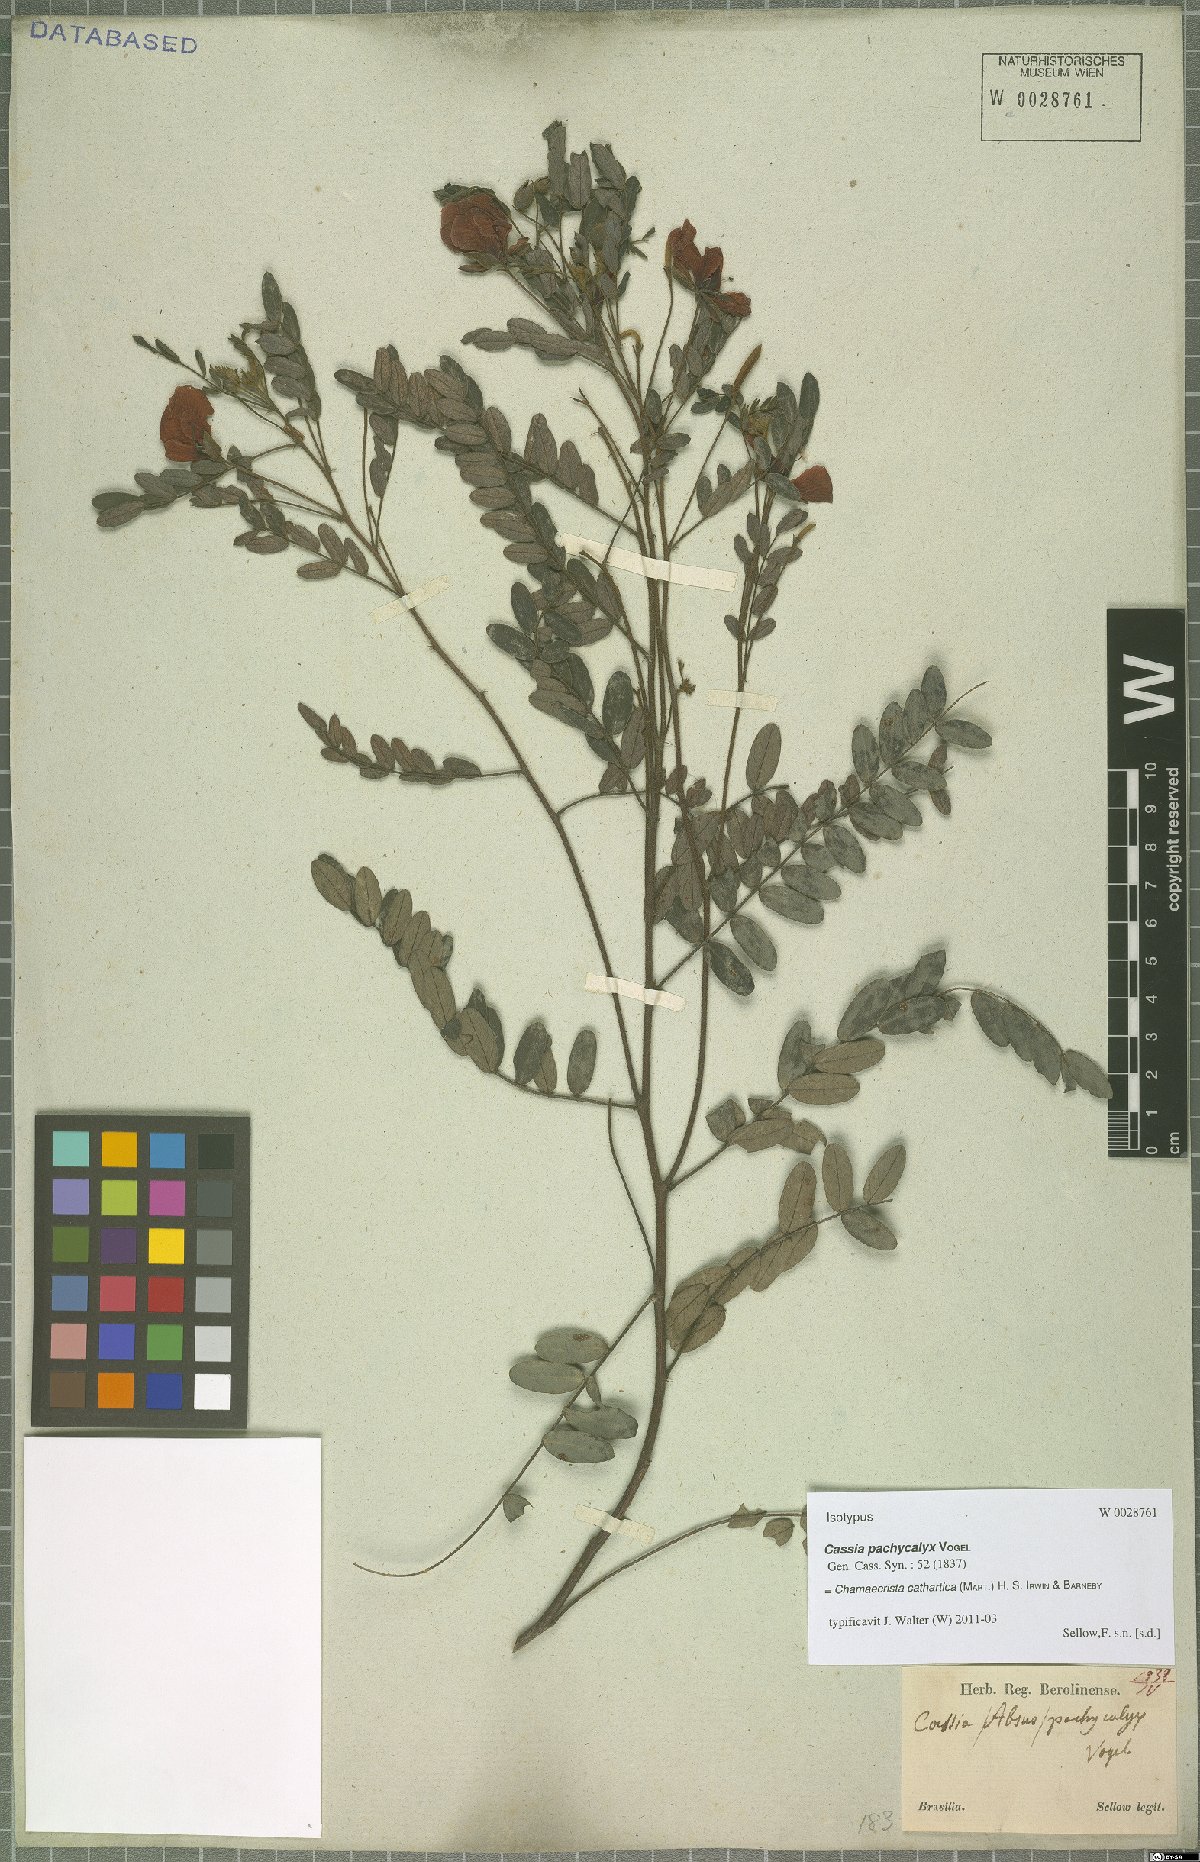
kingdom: Plantae
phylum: Tracheophyta
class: Magnoliopsida
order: Fabales
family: Fabaceae
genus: Chamaecrista
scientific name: Chamaecrista cathartica
